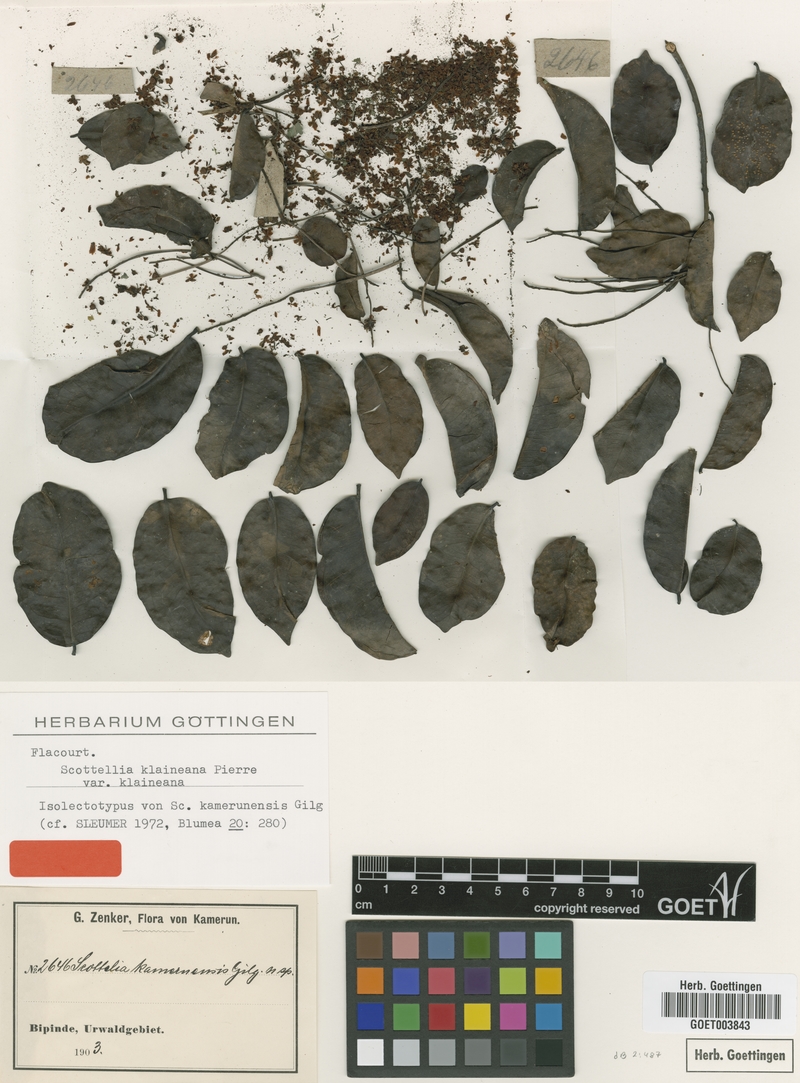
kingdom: Plantae
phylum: Tracheophyta
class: Magnoliopsida
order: Malpighiales
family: Achariaceae
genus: Scottellia
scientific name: Scottellia klaineana
